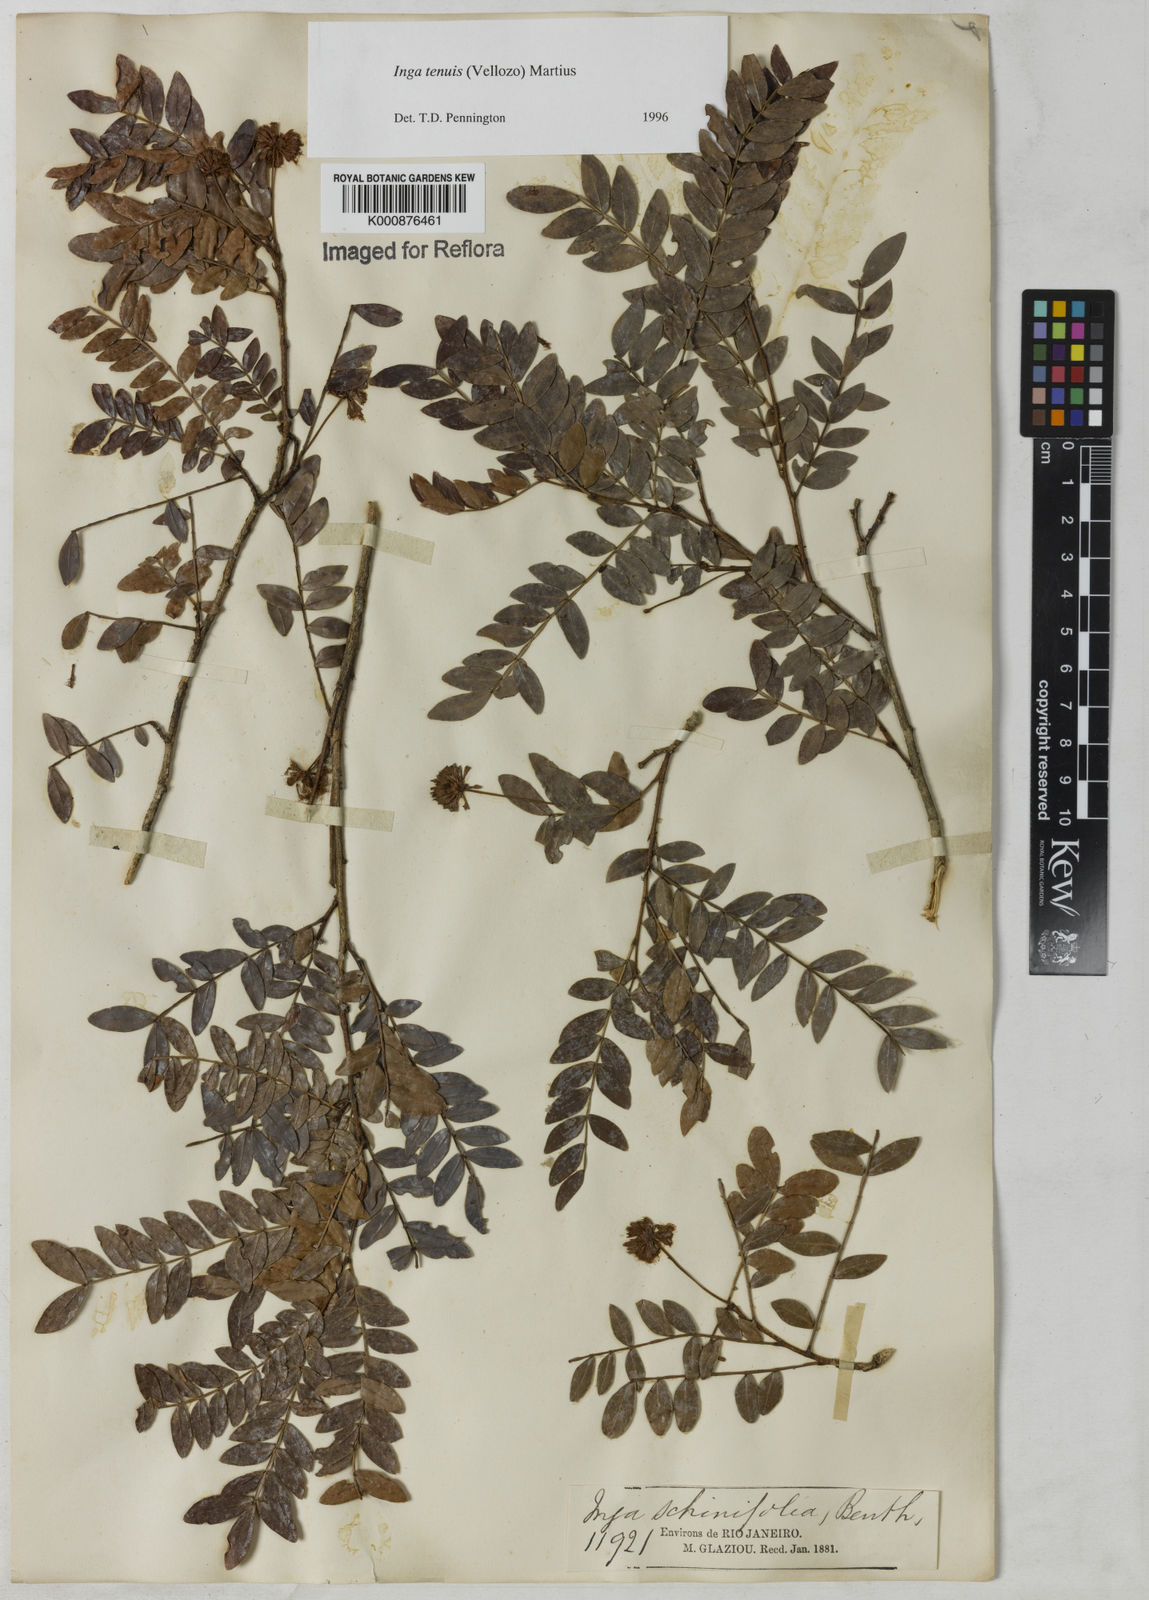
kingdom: Plantae
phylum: Tracheophyta
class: Magnoliopsida
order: Fabales
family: Fabaceae
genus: Inga
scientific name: Inga tenuis
